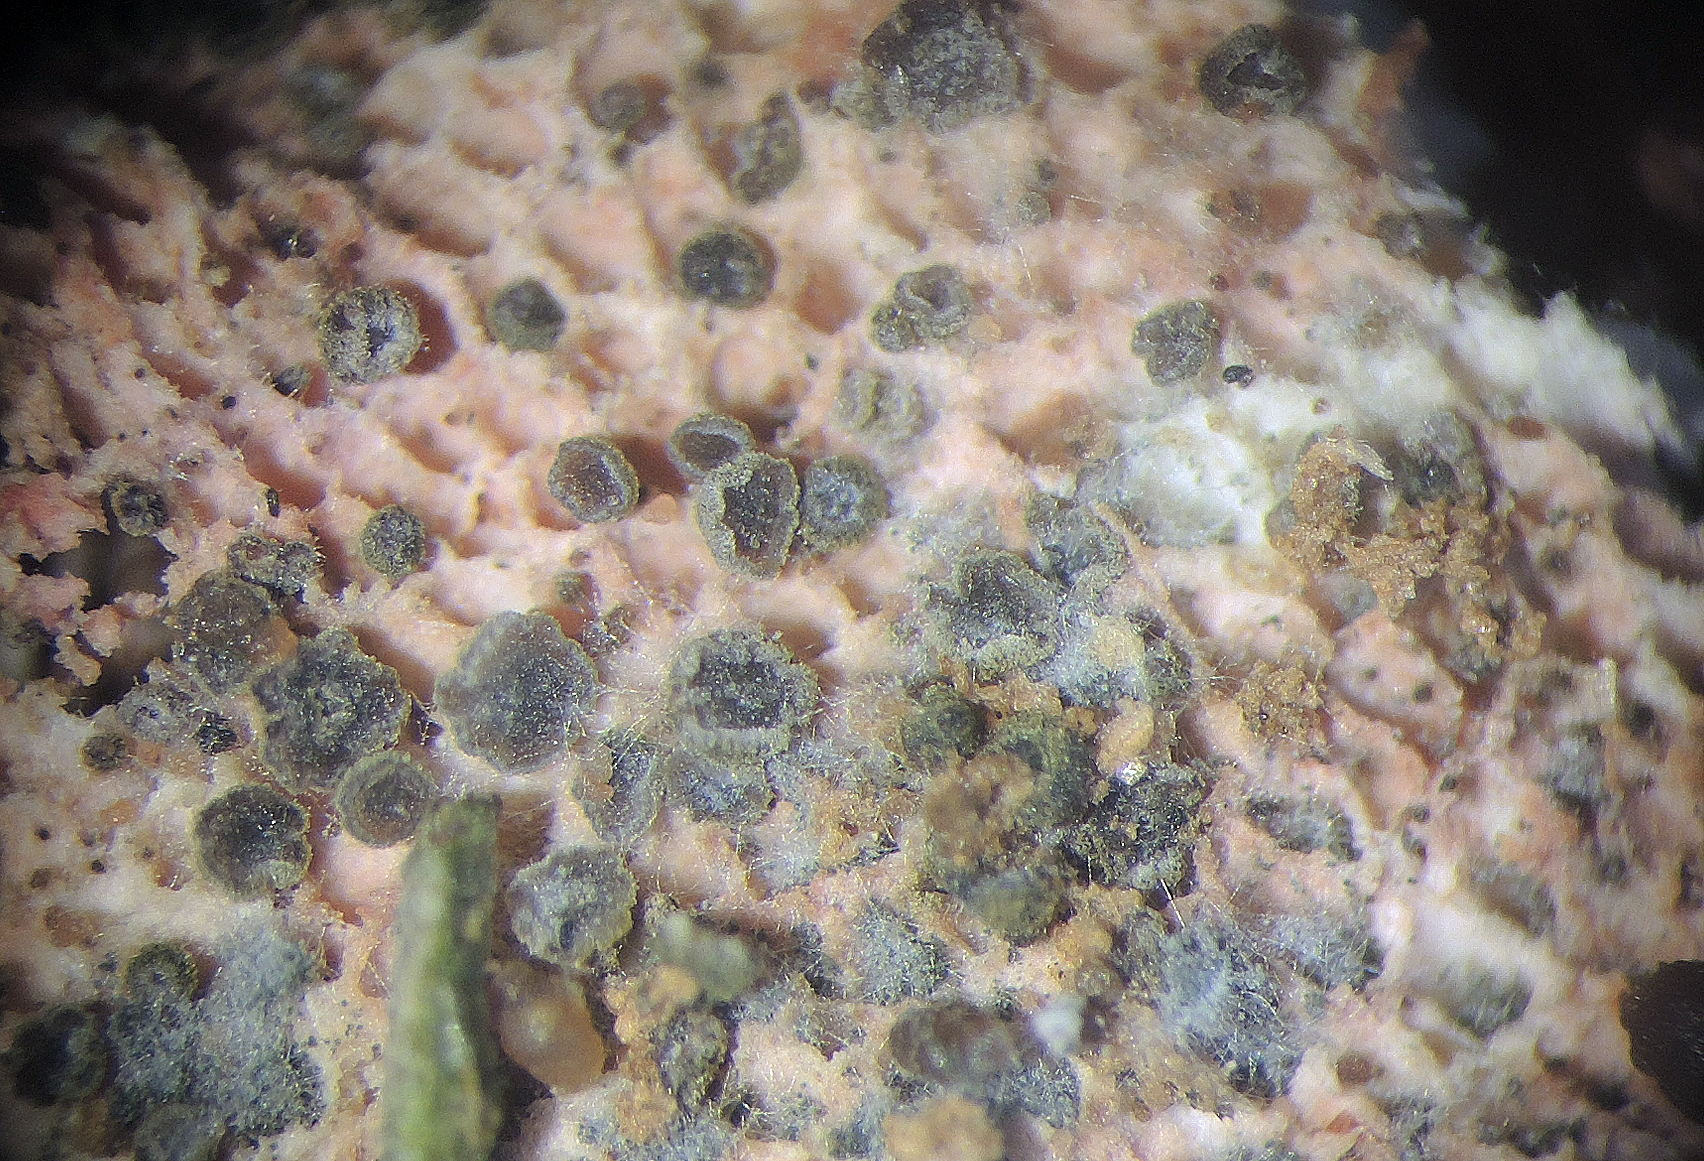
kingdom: Fungi
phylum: Ascomycota
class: Leotiomycetes
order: Helotiales
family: Hyphodiscaceae
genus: Hyphodiscus
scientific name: Hyphodiscus hymeniophilus
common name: snyltende sirskive
